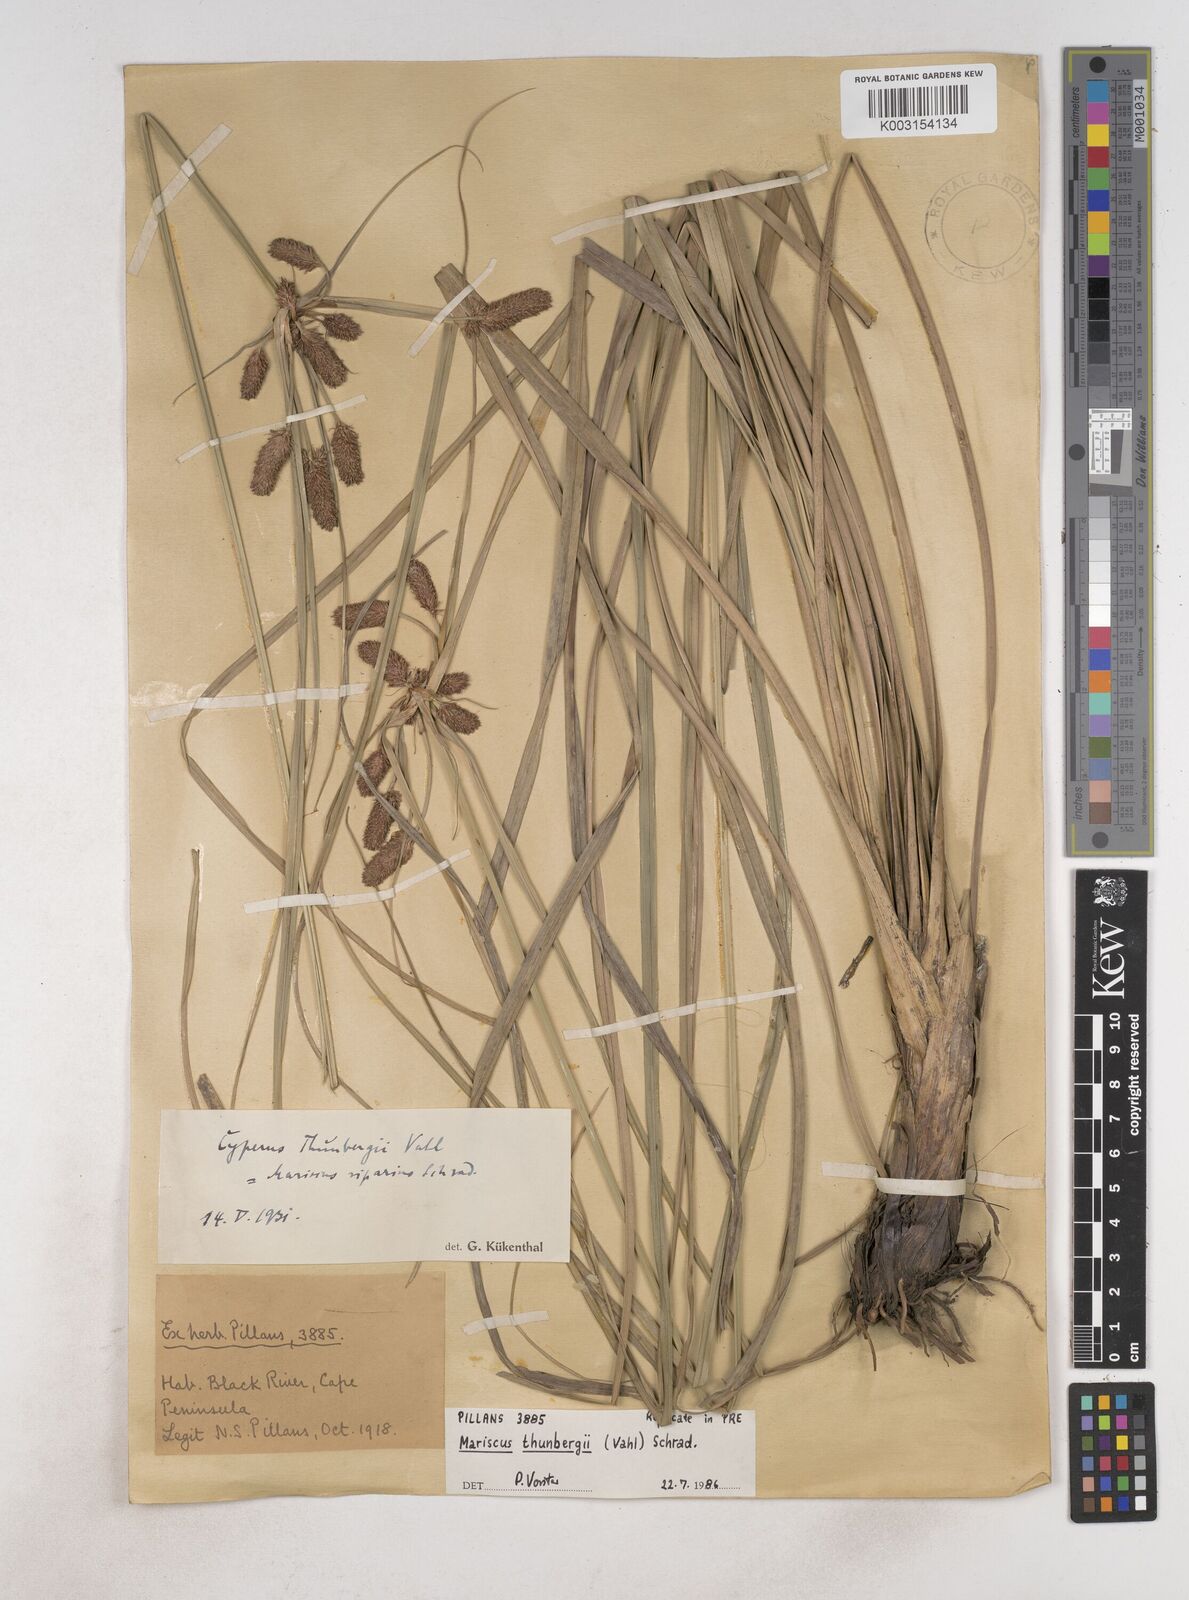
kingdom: Plantae
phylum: Tracheophyta
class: Liliopsida
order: Poales
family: Cyperaceae
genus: Cyperus
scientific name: Cyperus thunbergii
